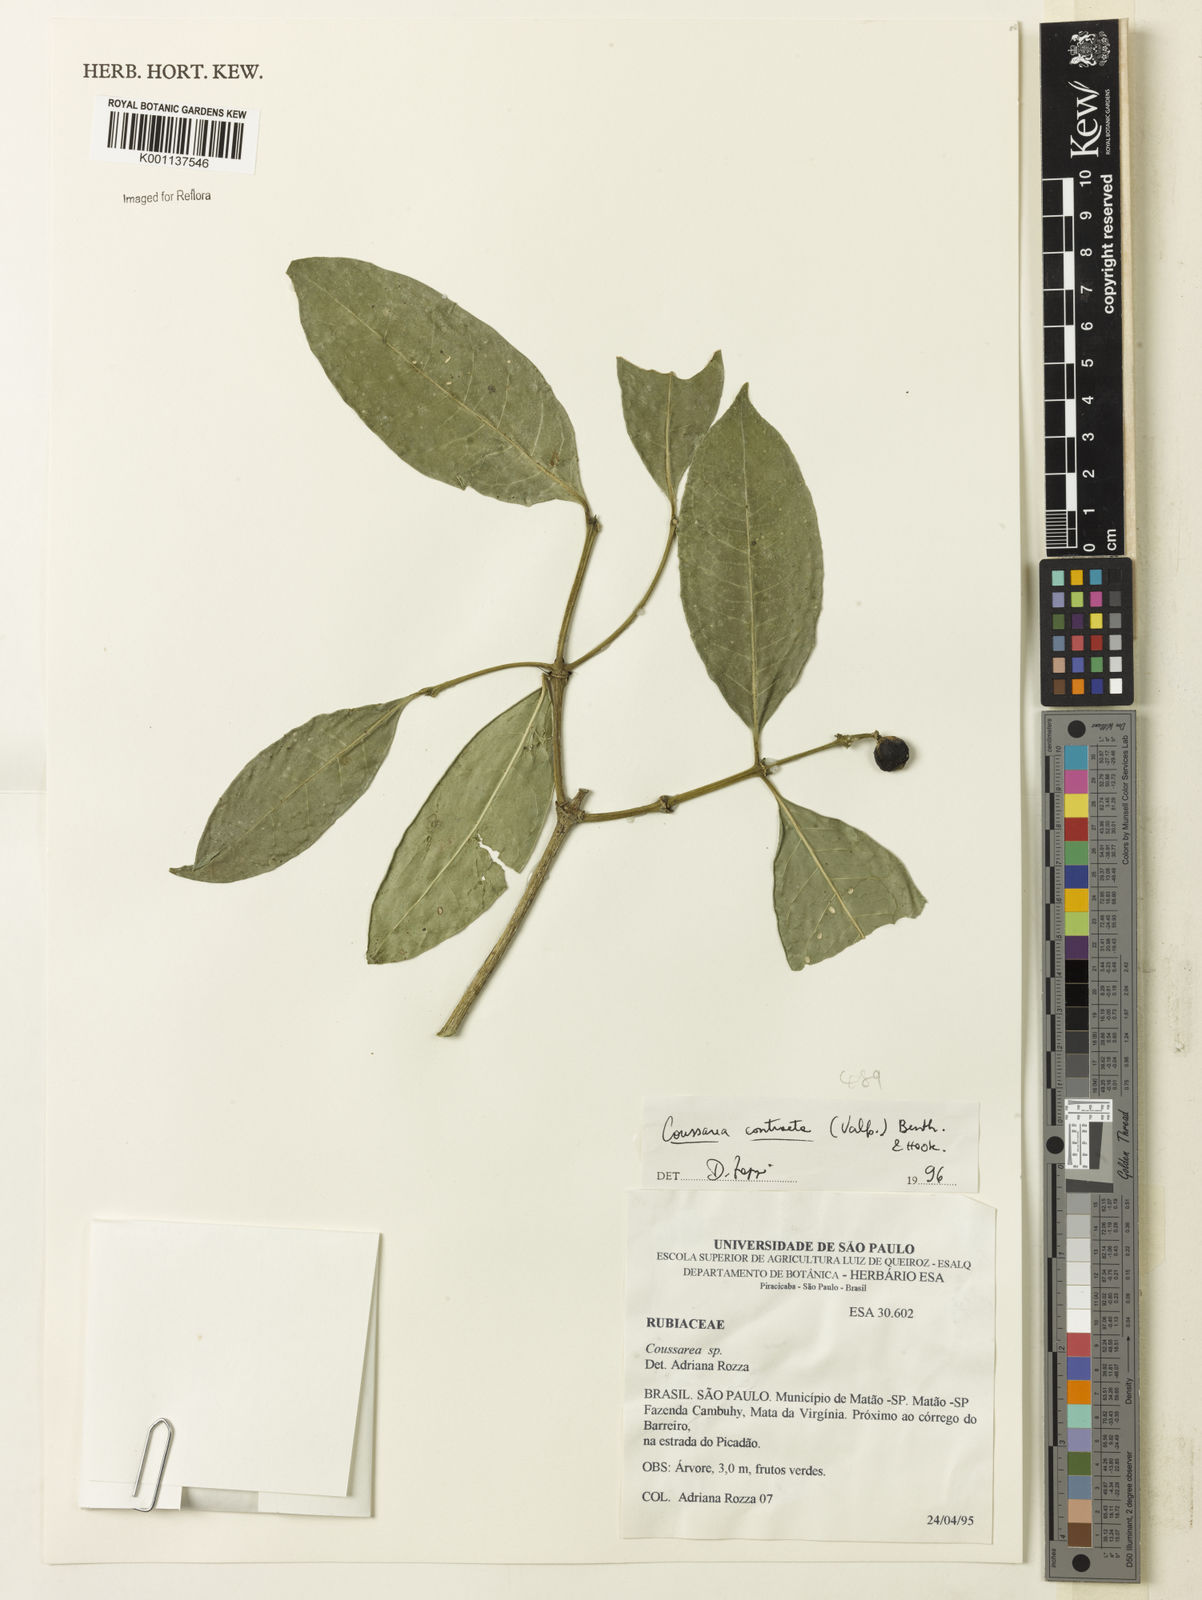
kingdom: Plantae
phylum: Tracheophyta
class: Magnoliopsida
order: Gentianales
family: Rubiaceae
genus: Coussarea
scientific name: Coussarea
